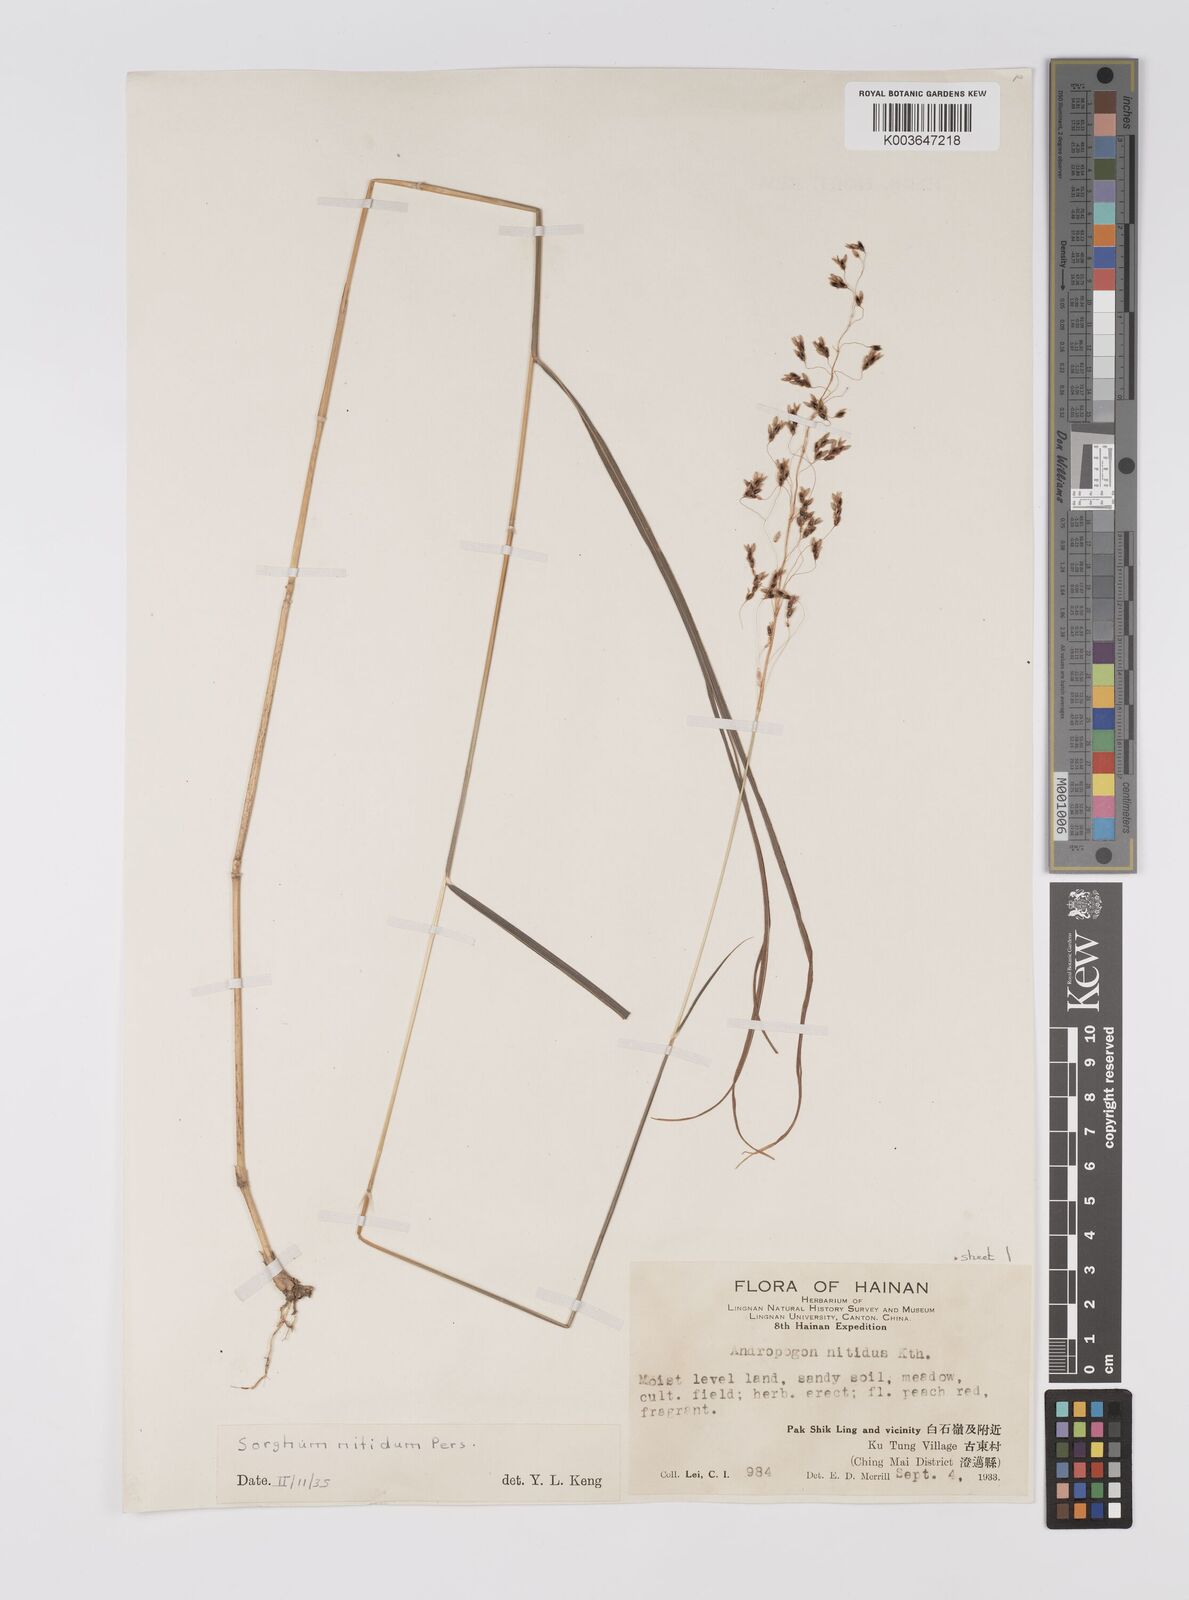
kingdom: Plantae
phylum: Tracheophyta
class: Liliopsida
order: Poales
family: Poaceae
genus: Sorghum
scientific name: Sorghum nitidum
